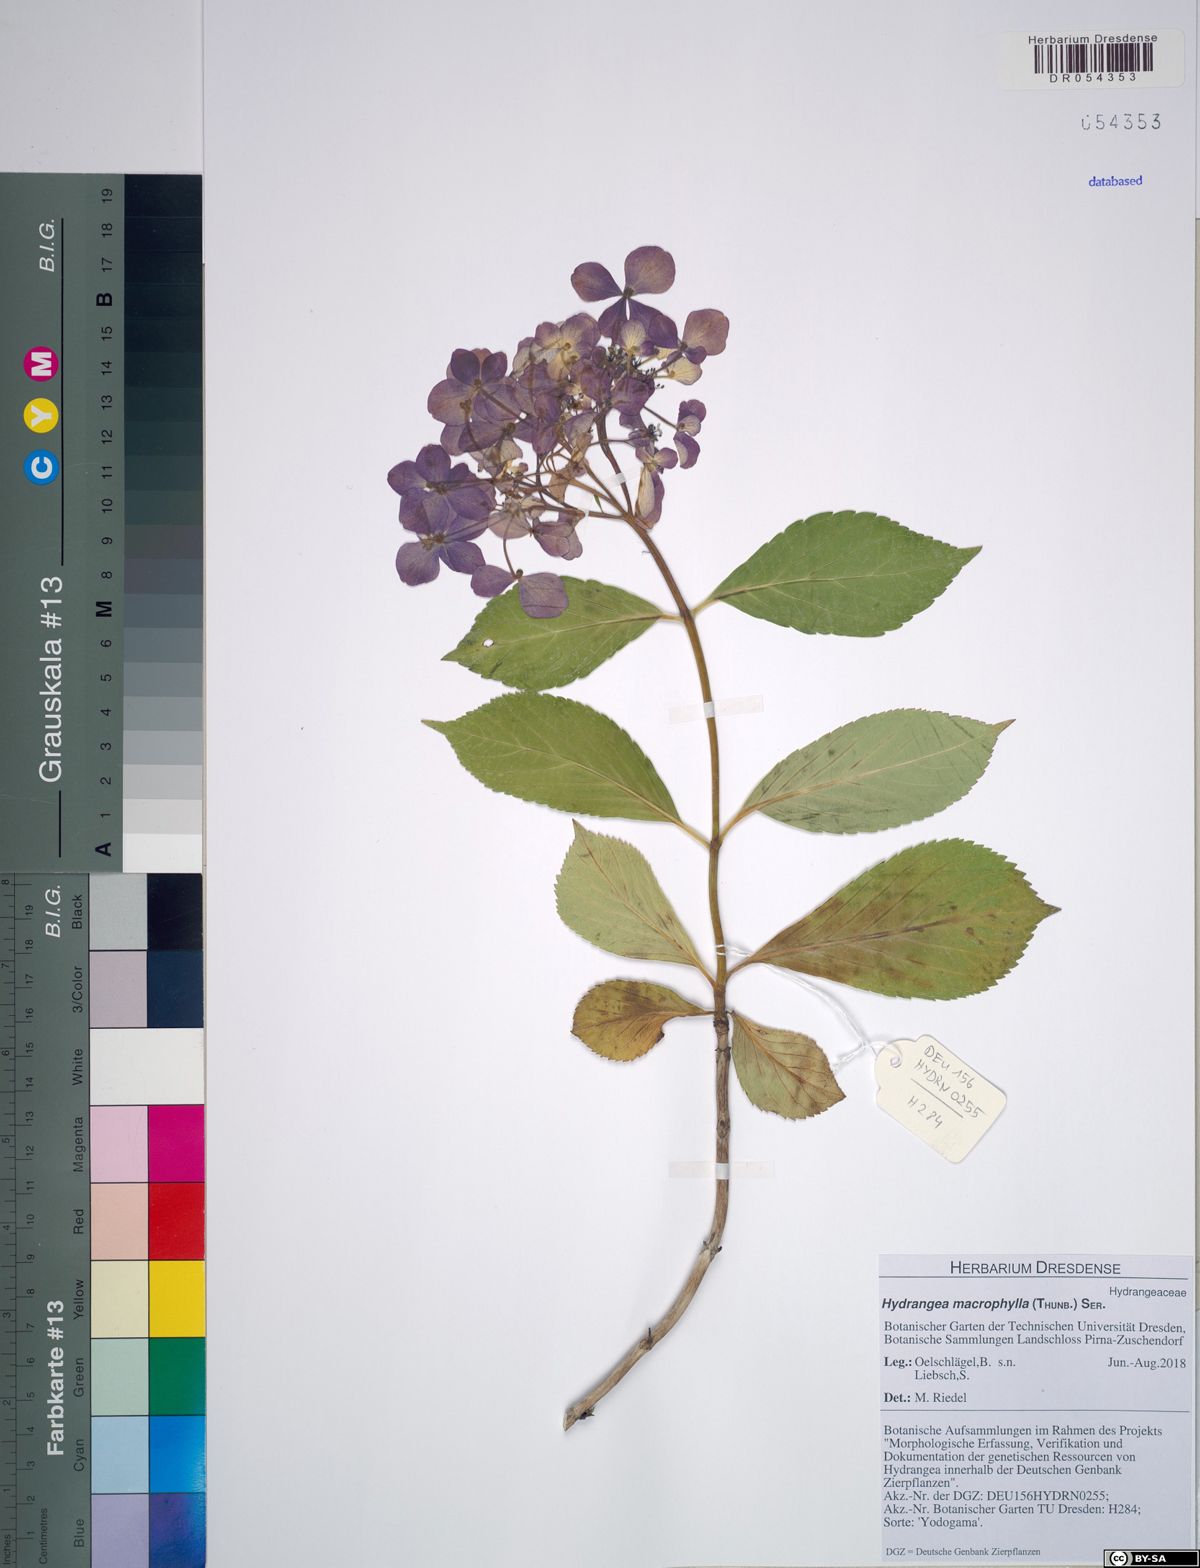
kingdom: Plantae
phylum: Tracheophyta
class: Magnoliopsida
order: Cornales
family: Hydrangeaceae
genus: Hydrangea
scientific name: Hydrangea macrophylla
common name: Hydrangea
